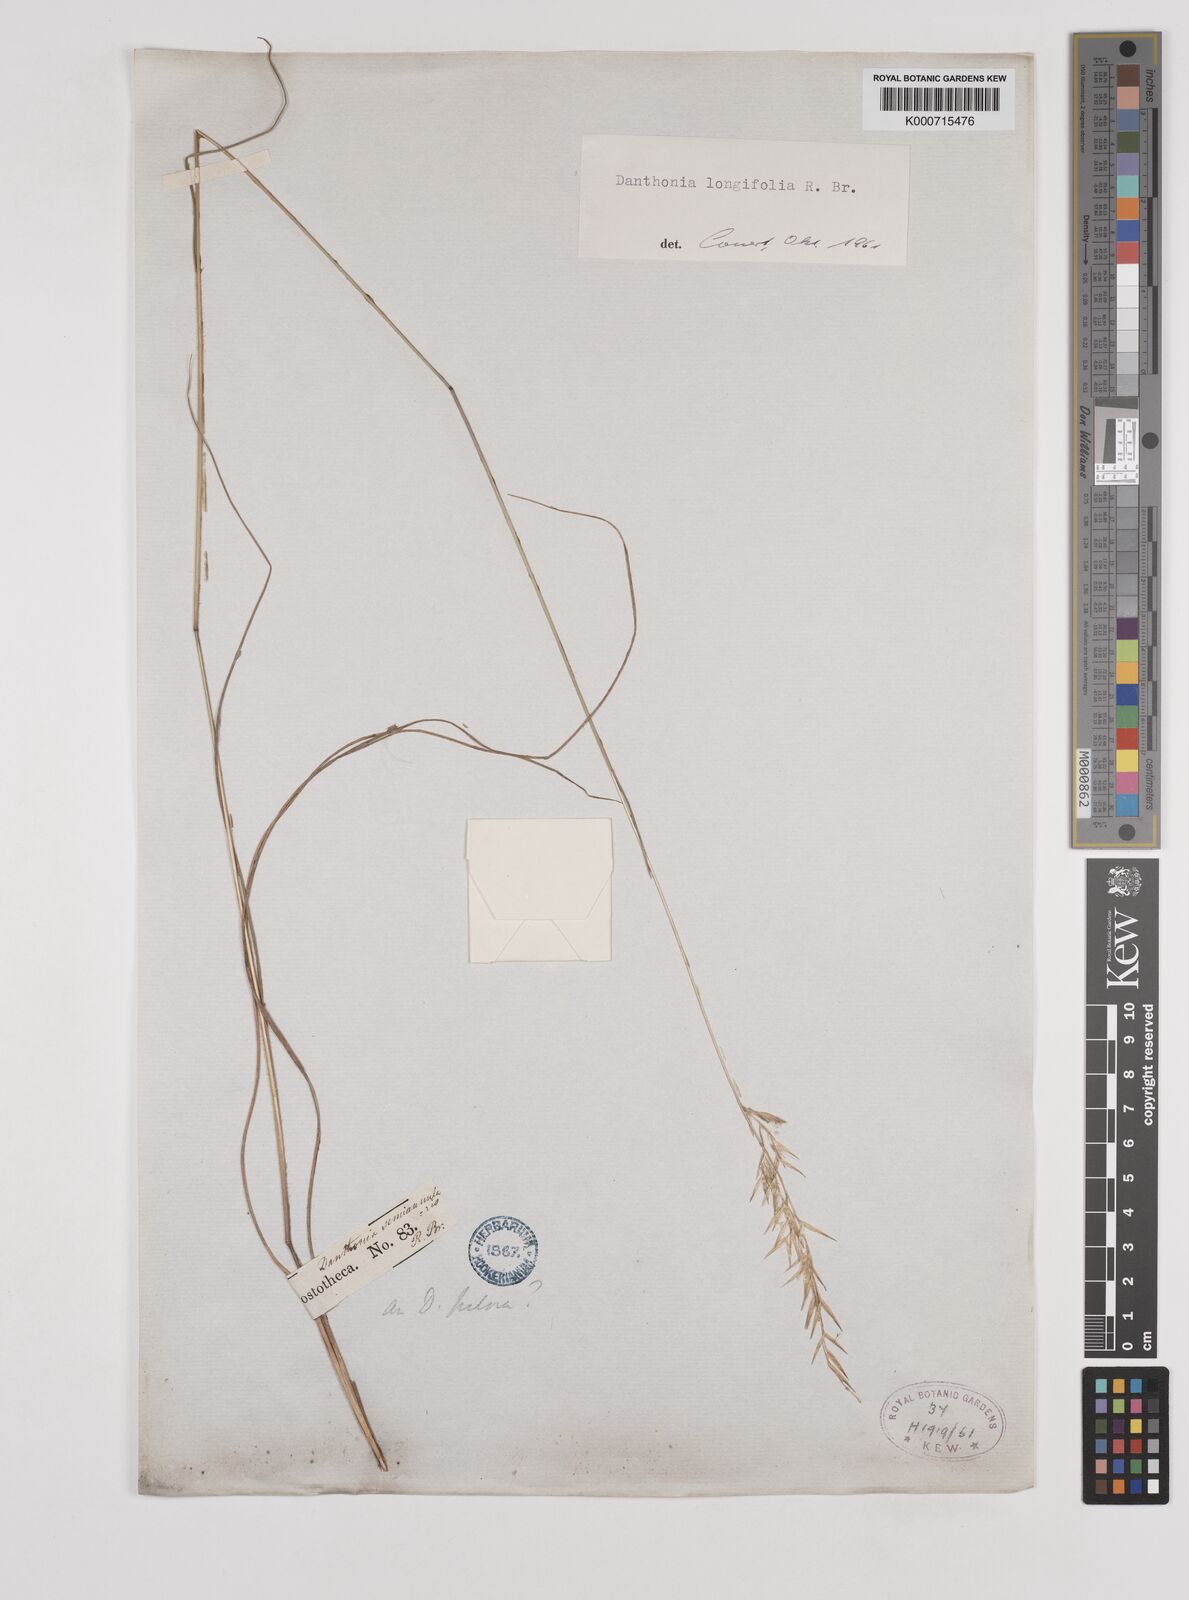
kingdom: Plantae
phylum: Tracheophyta
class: Liliopsida
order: Poales
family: Poaceae
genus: Rytidosperma
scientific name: Rytidosperma longifolium
